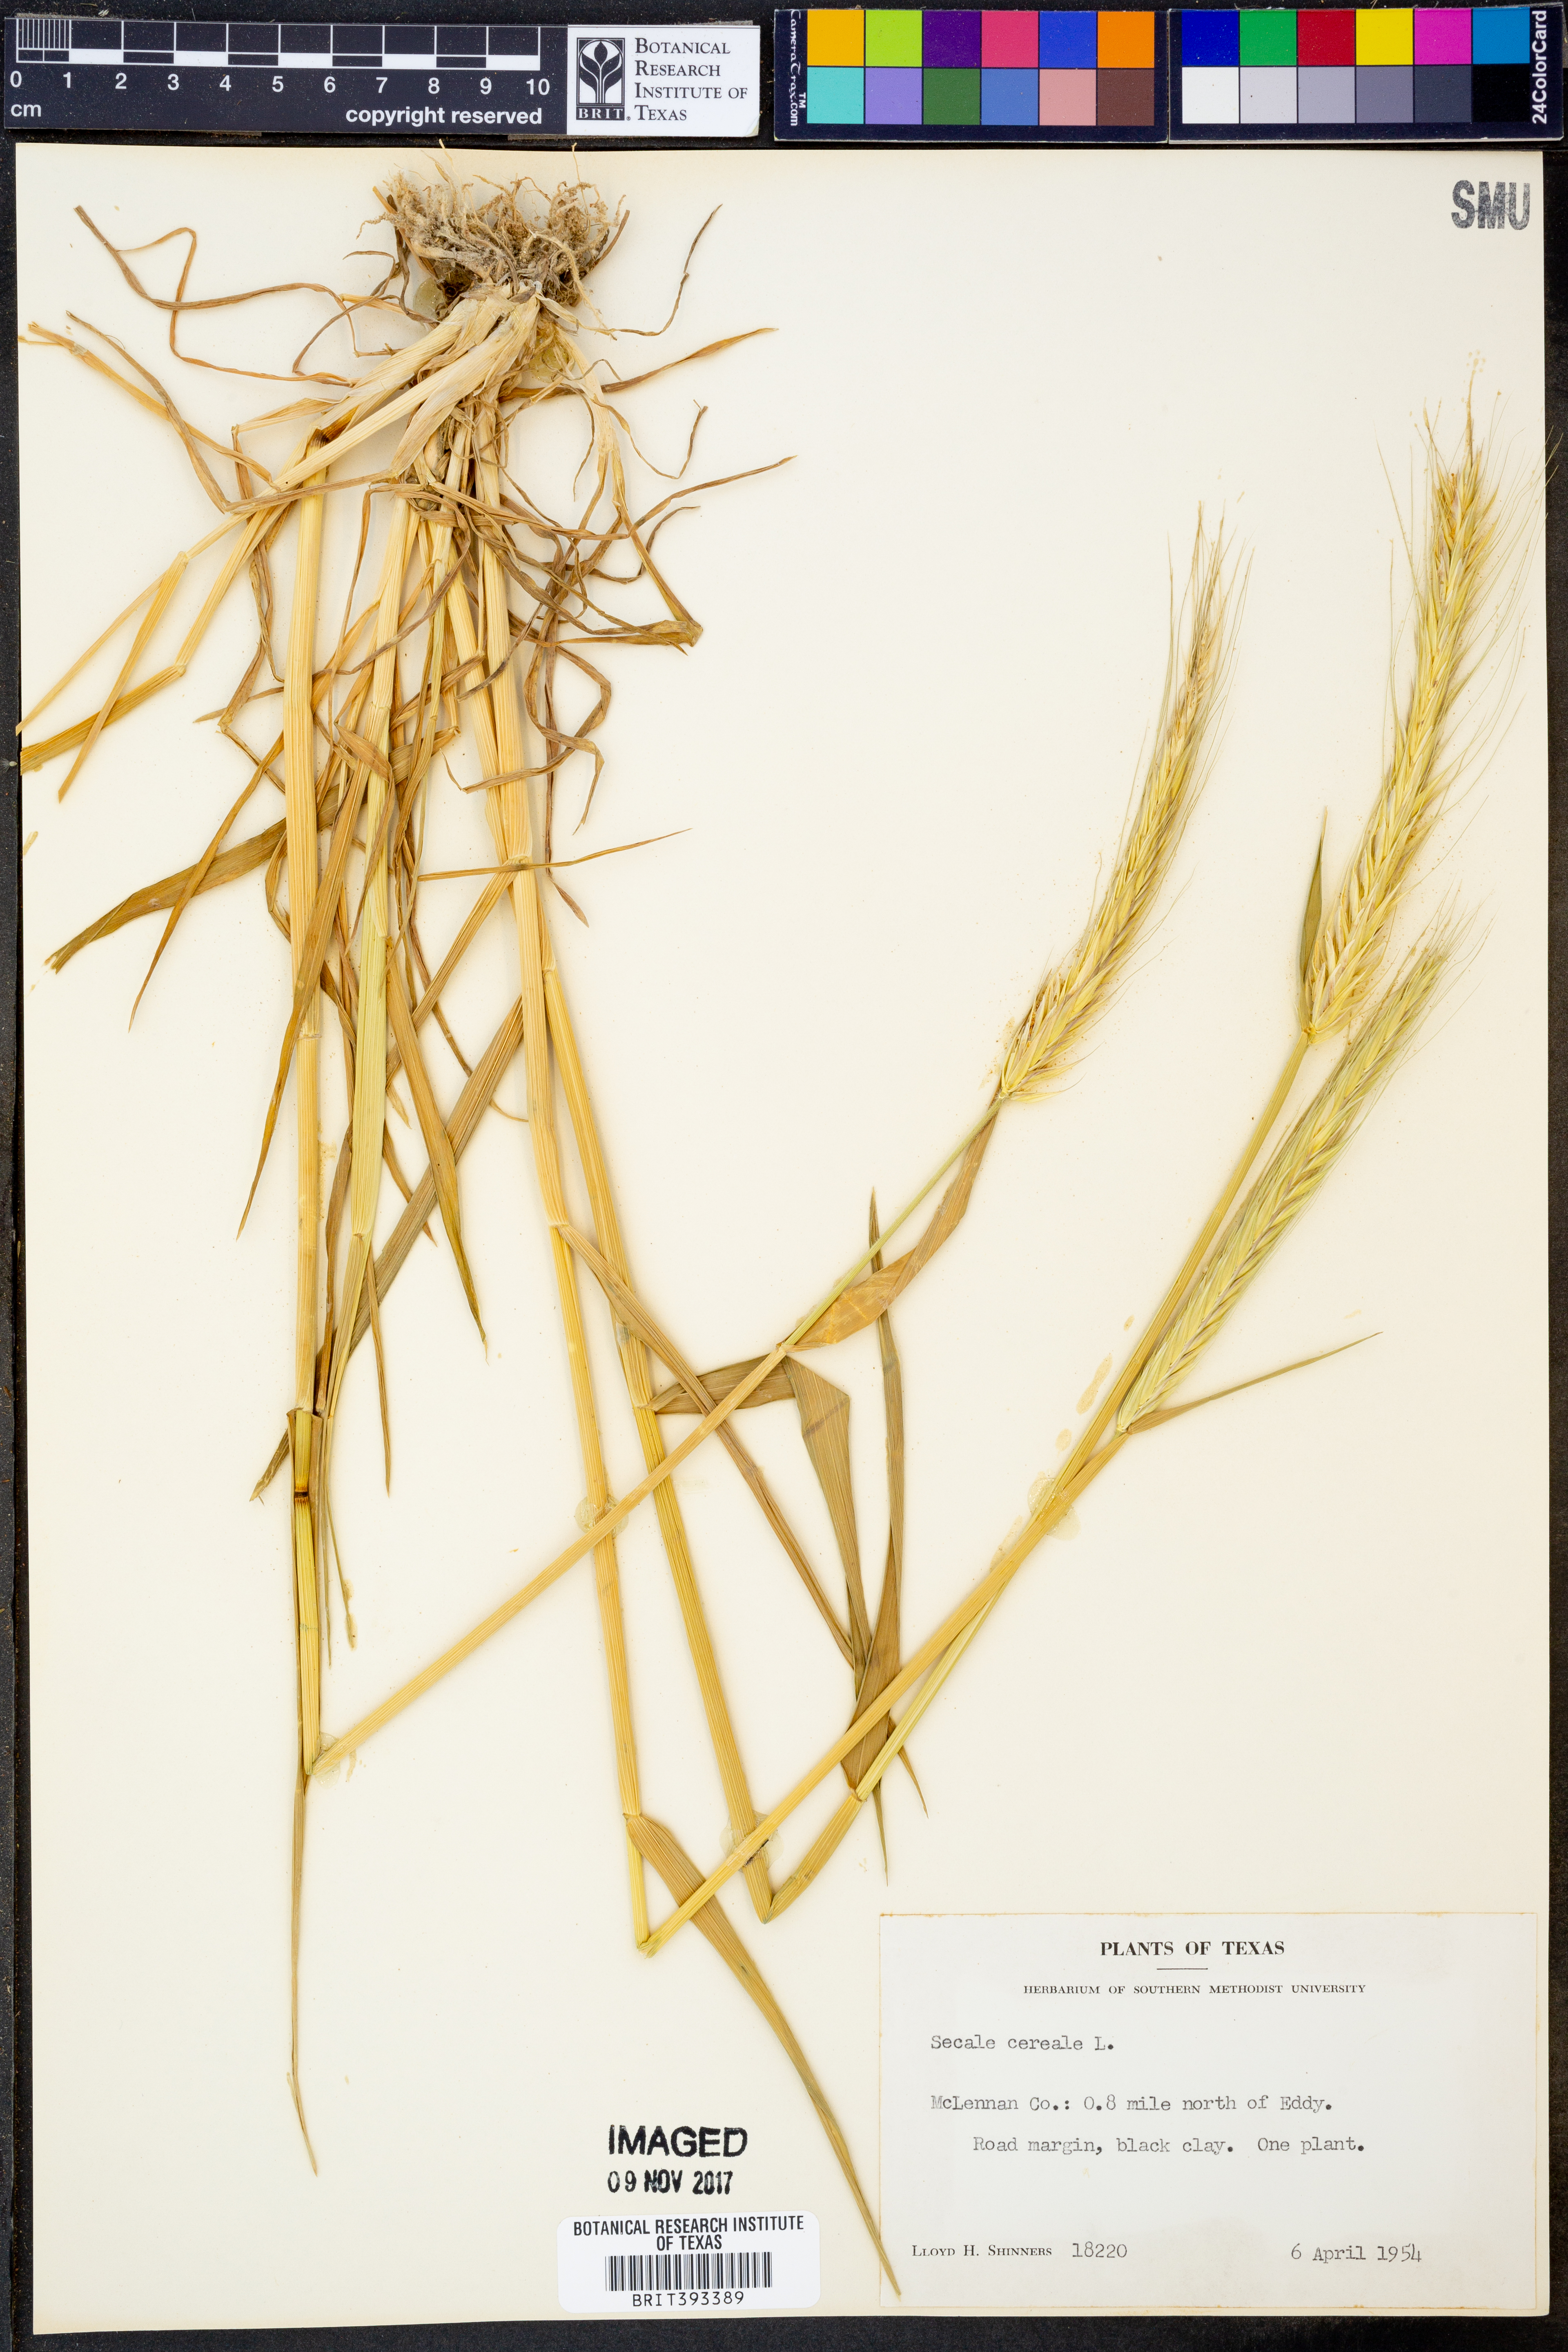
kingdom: Plantae
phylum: Tracheophyta
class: Liliopsida
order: Poales
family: Poaceae
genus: Secale
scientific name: Secale cereale
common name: Rye
